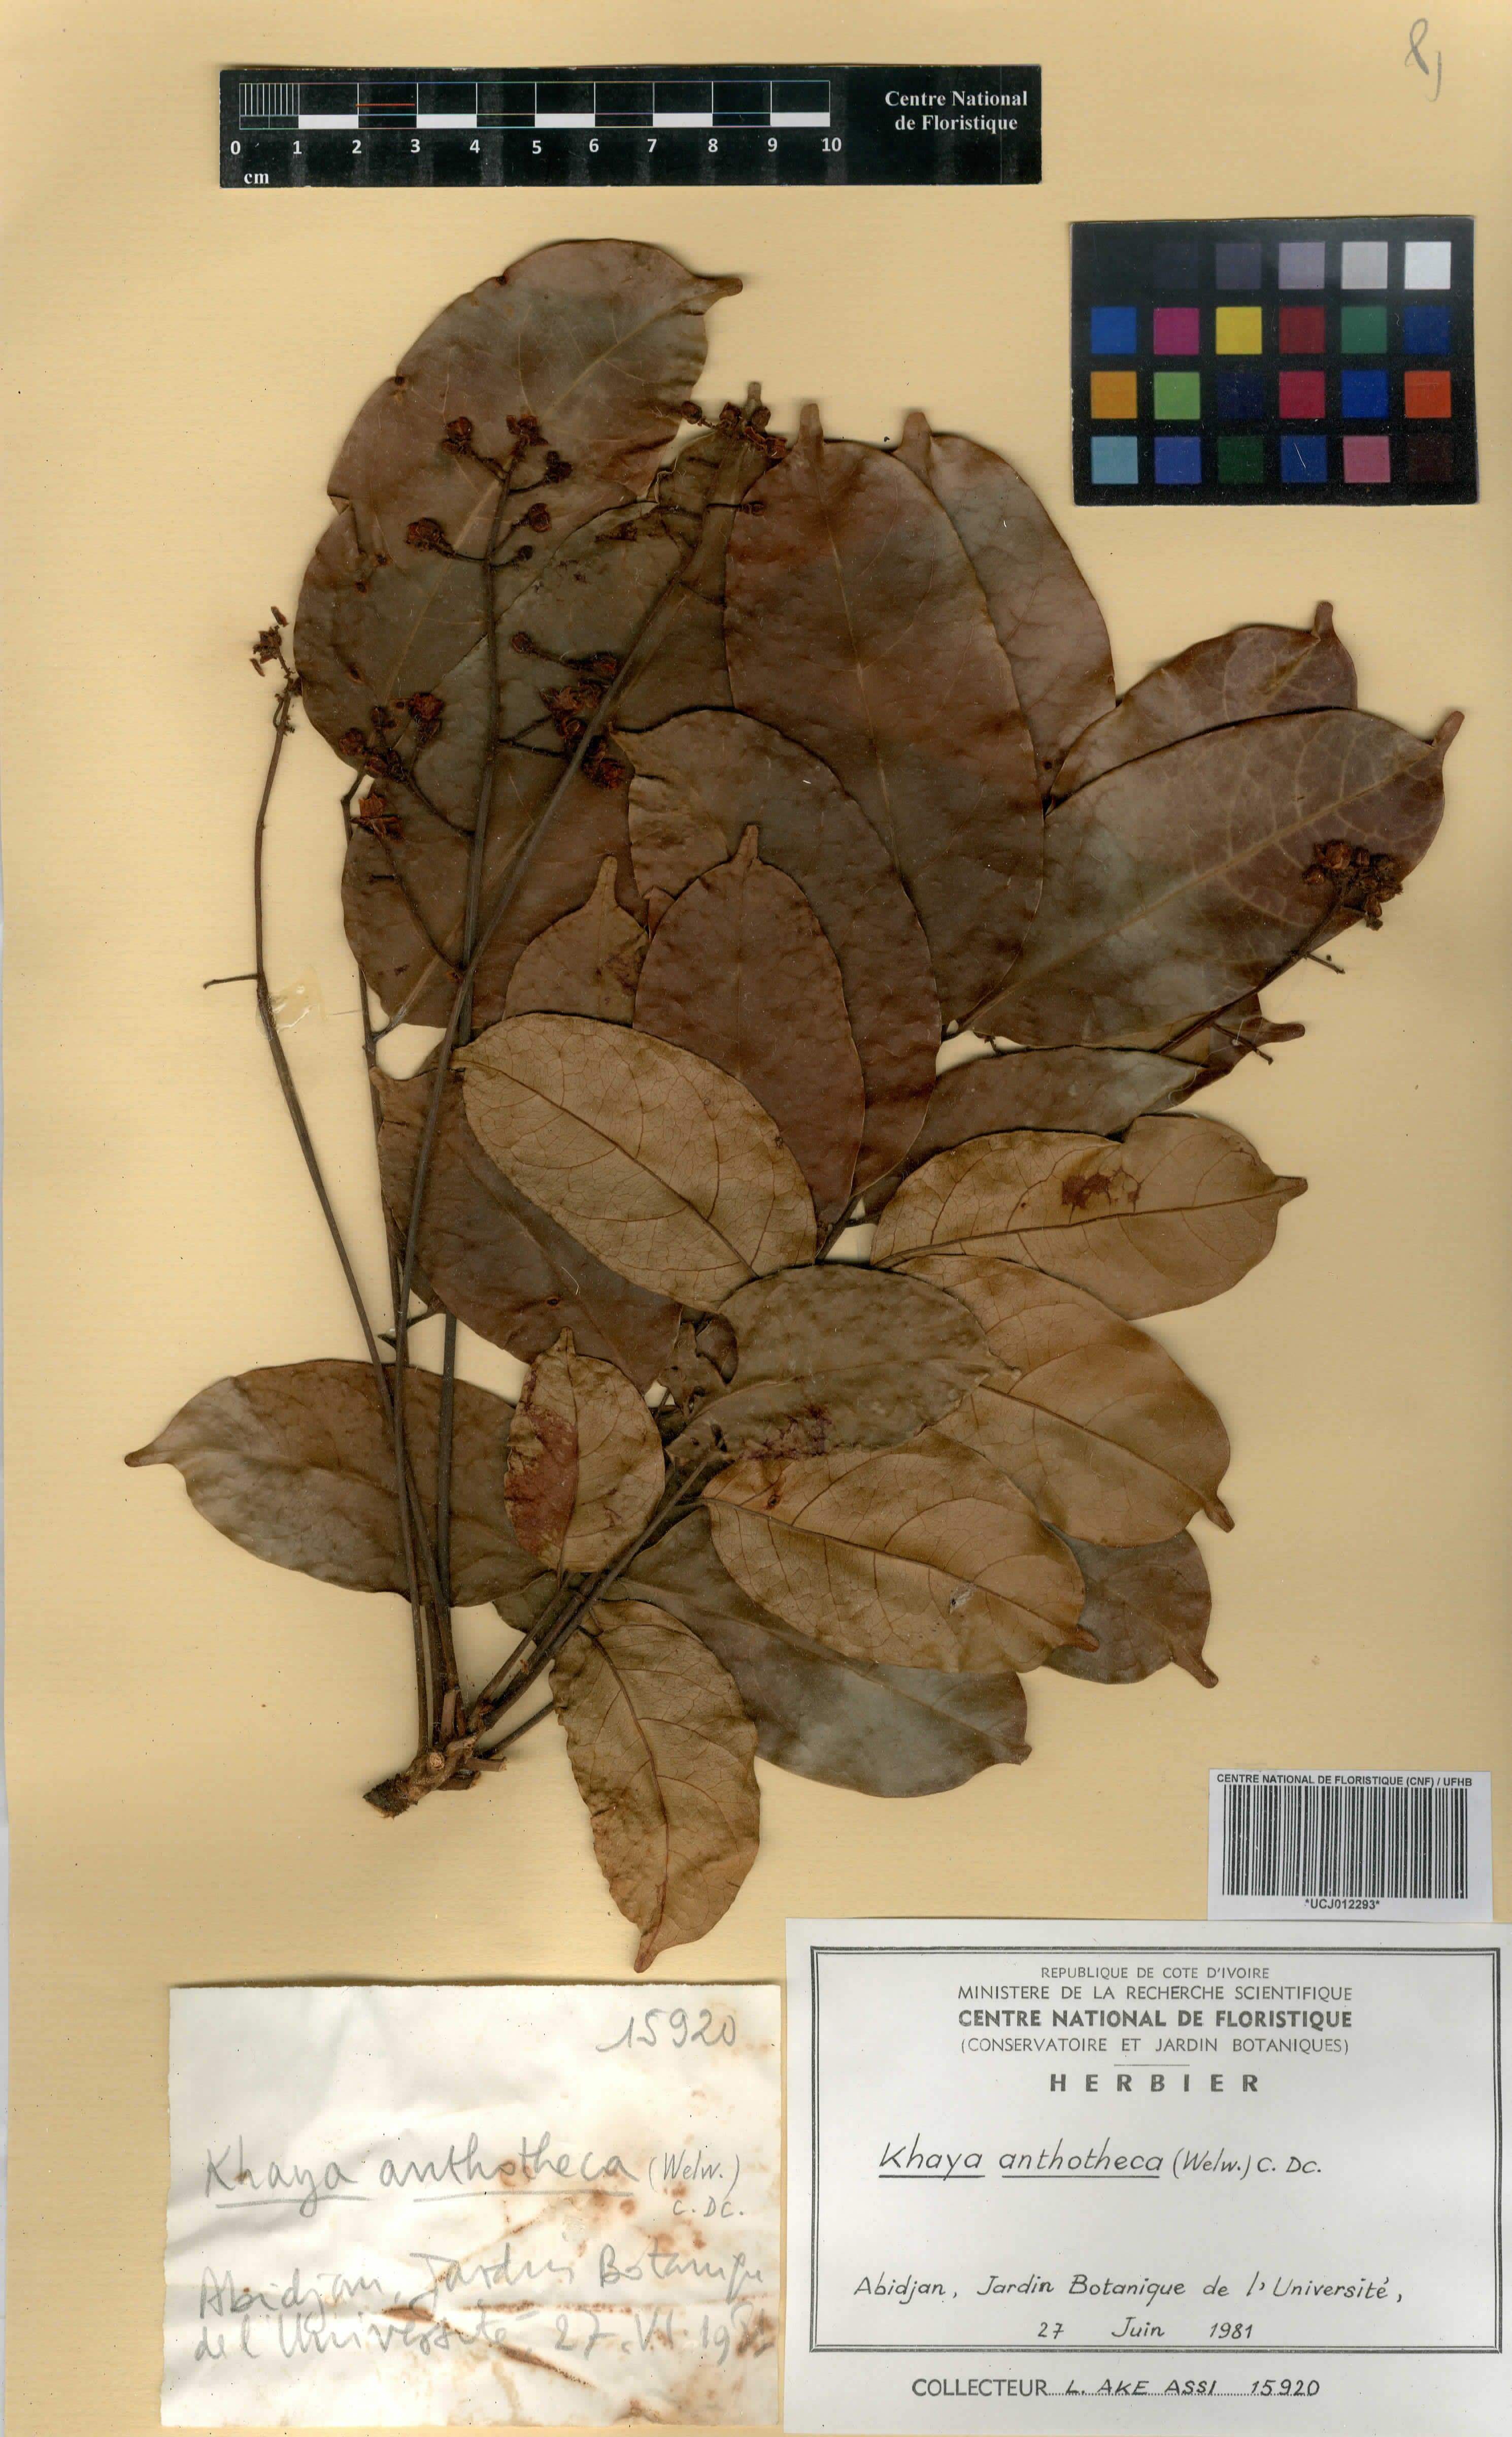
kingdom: Plantae
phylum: Tracheophyta
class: Magnoliopsida
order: Sapindales
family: Meliaceae
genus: Khaya
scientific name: Khaya anthotheca
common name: Nyasaland mahogany
